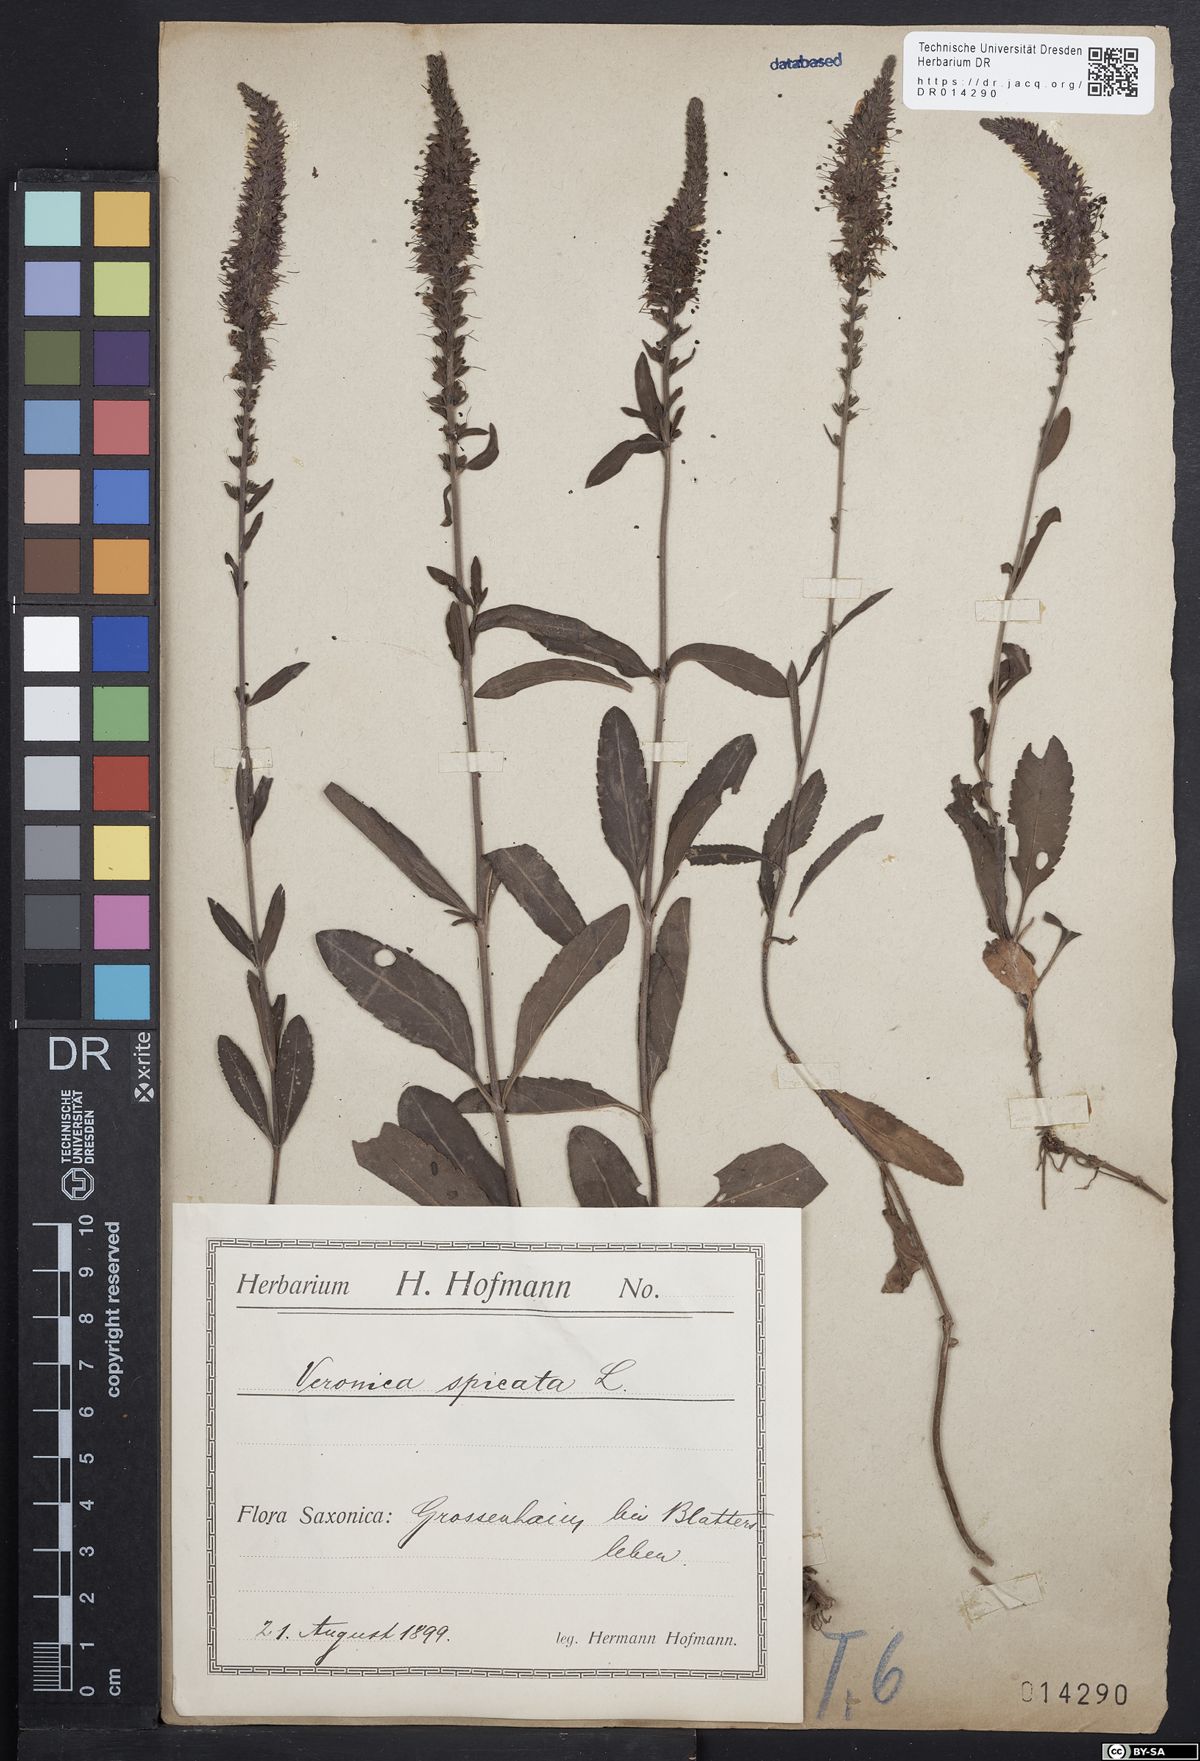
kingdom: Plantae
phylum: Tracheophyta
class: Magnoliopsida
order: Lamiales
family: Plantaginaceae
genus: Veronica
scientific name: Veronica spicata
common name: Spiked speedwell
